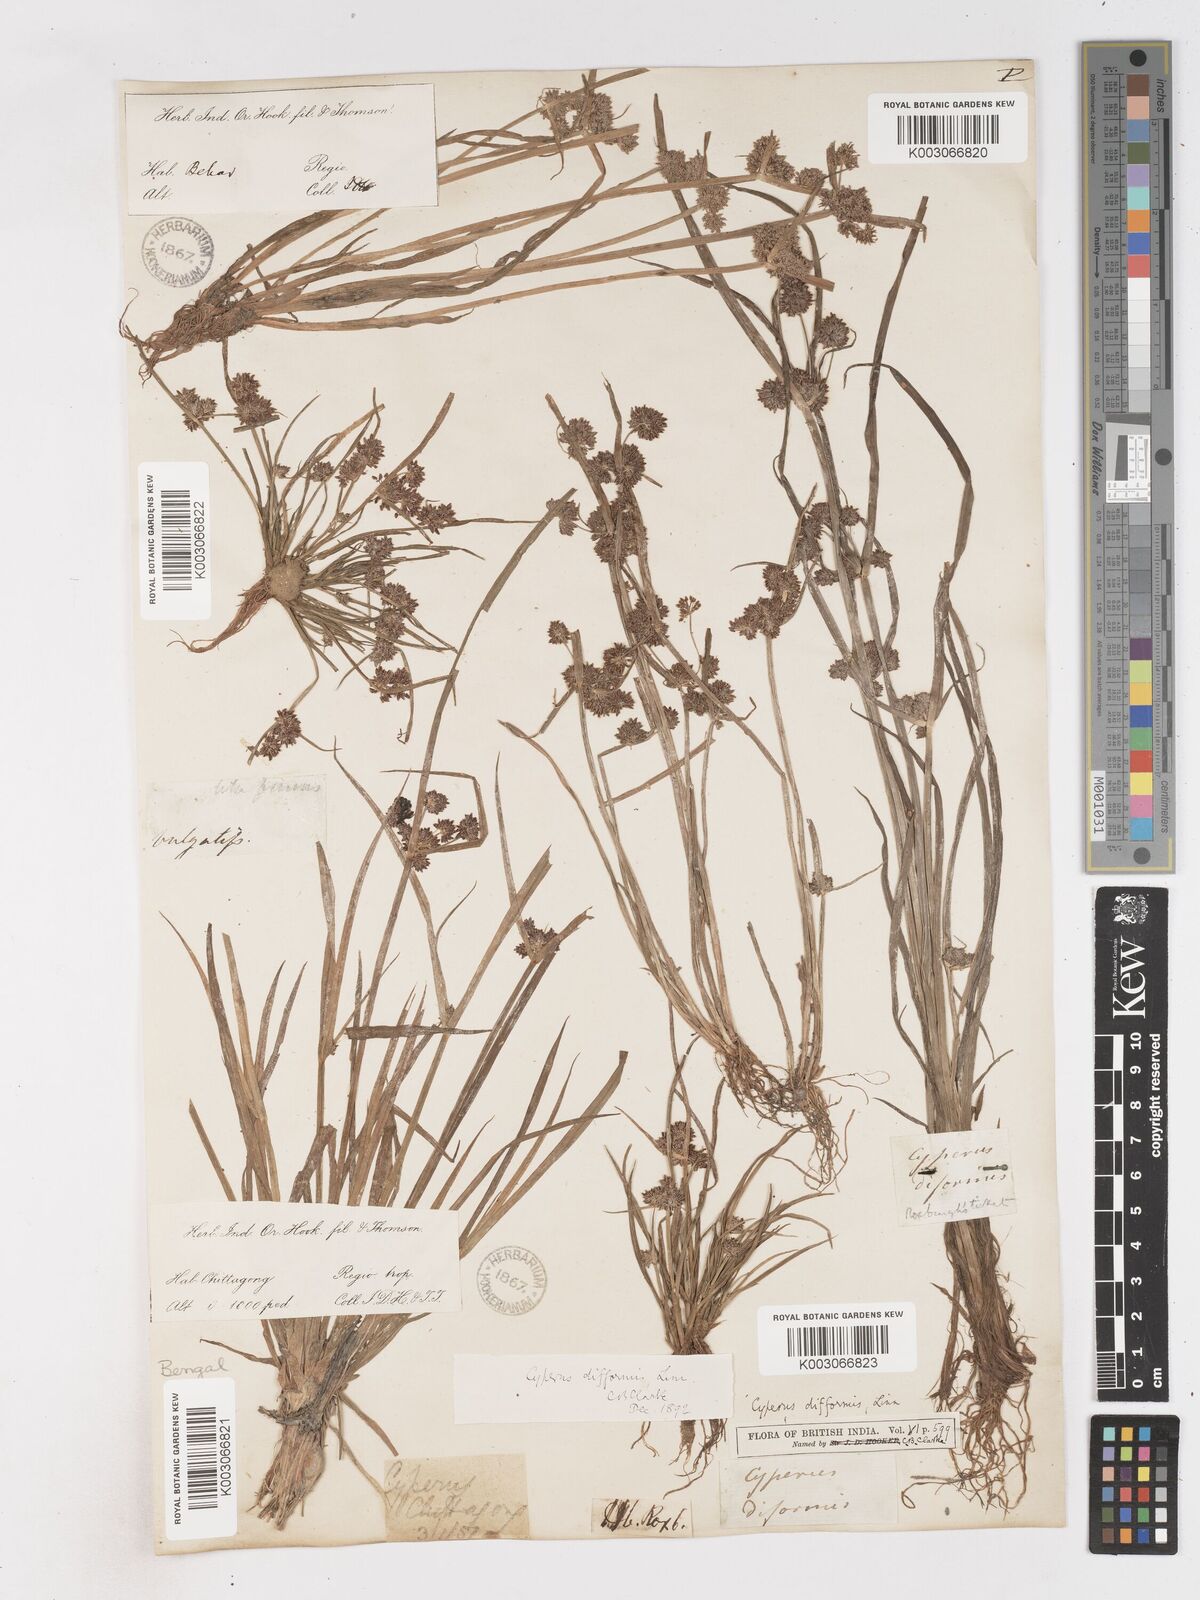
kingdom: Plantae
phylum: Tracheophyta
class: Liliopsida
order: Poales
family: Cyperaceae
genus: Cyperus
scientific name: Cyperus difformis
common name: Variable flatsedge
